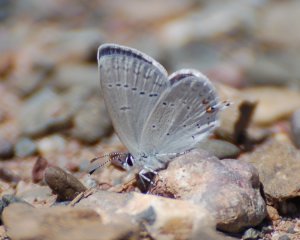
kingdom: Animalia
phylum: Arthropoda
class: Insecta
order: Lepidoptera
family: Lycaenidae
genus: Elkalyce
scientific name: Elkalyce amyntula
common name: Western Tailed-Blue
